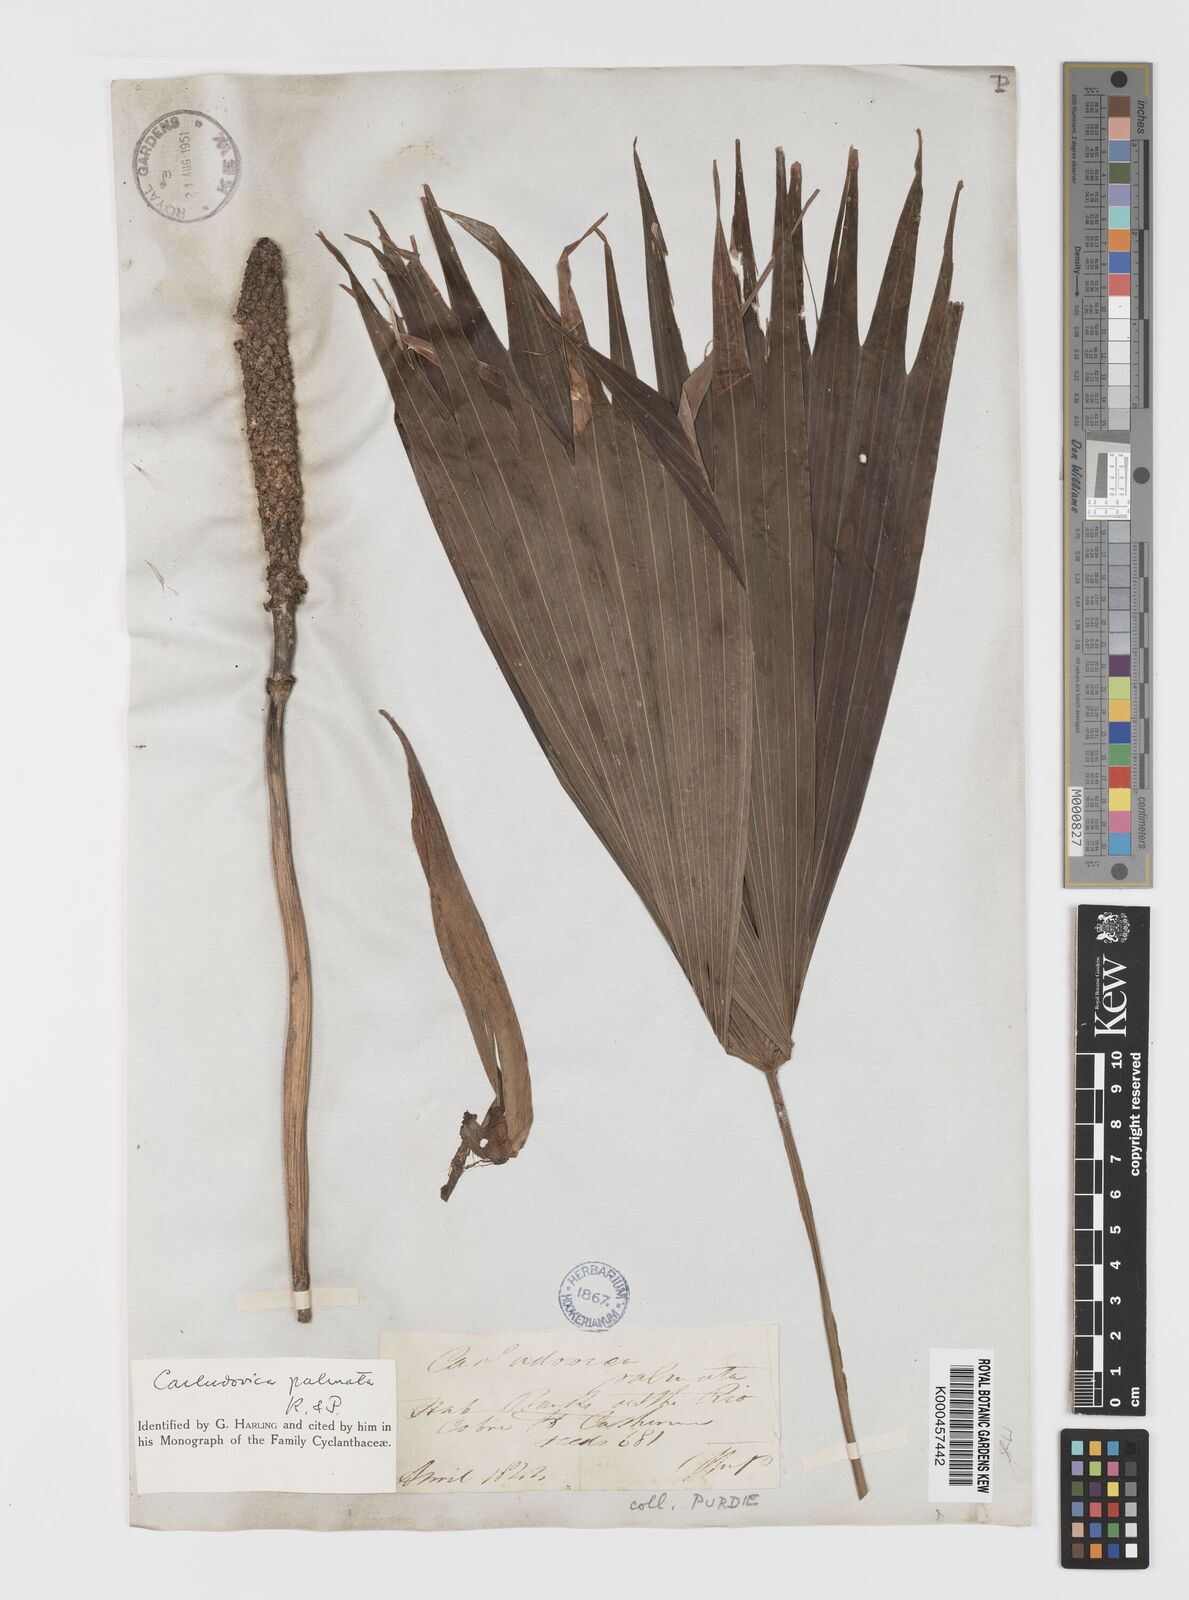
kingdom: Plantae
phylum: Tracheophyta
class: Liliopsida
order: Pandanales
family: Cyclanthaceae
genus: Carludovica
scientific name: Carludovica palmata
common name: Panama hat plant
